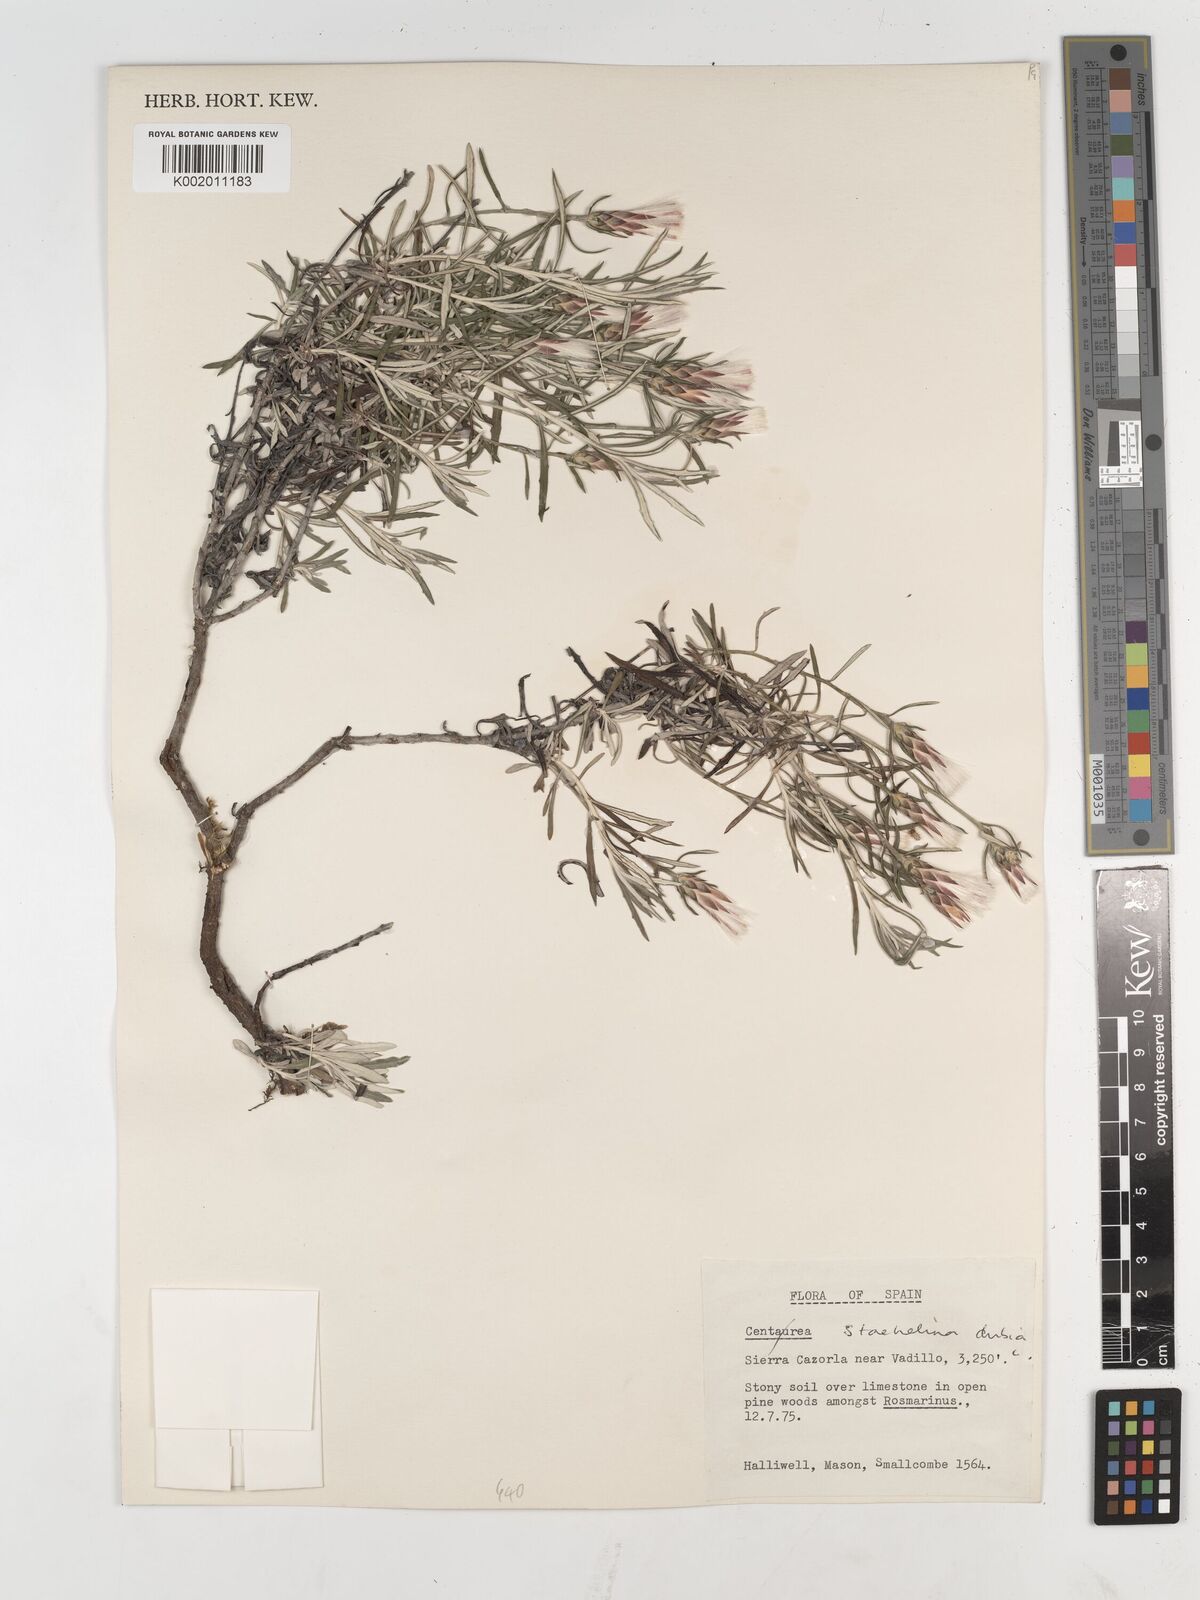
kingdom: Plantae
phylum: Tracheophyta
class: Magnoliopsida
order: Asterales
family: Asteraceae
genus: Staehelina
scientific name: Staehelina dubia
